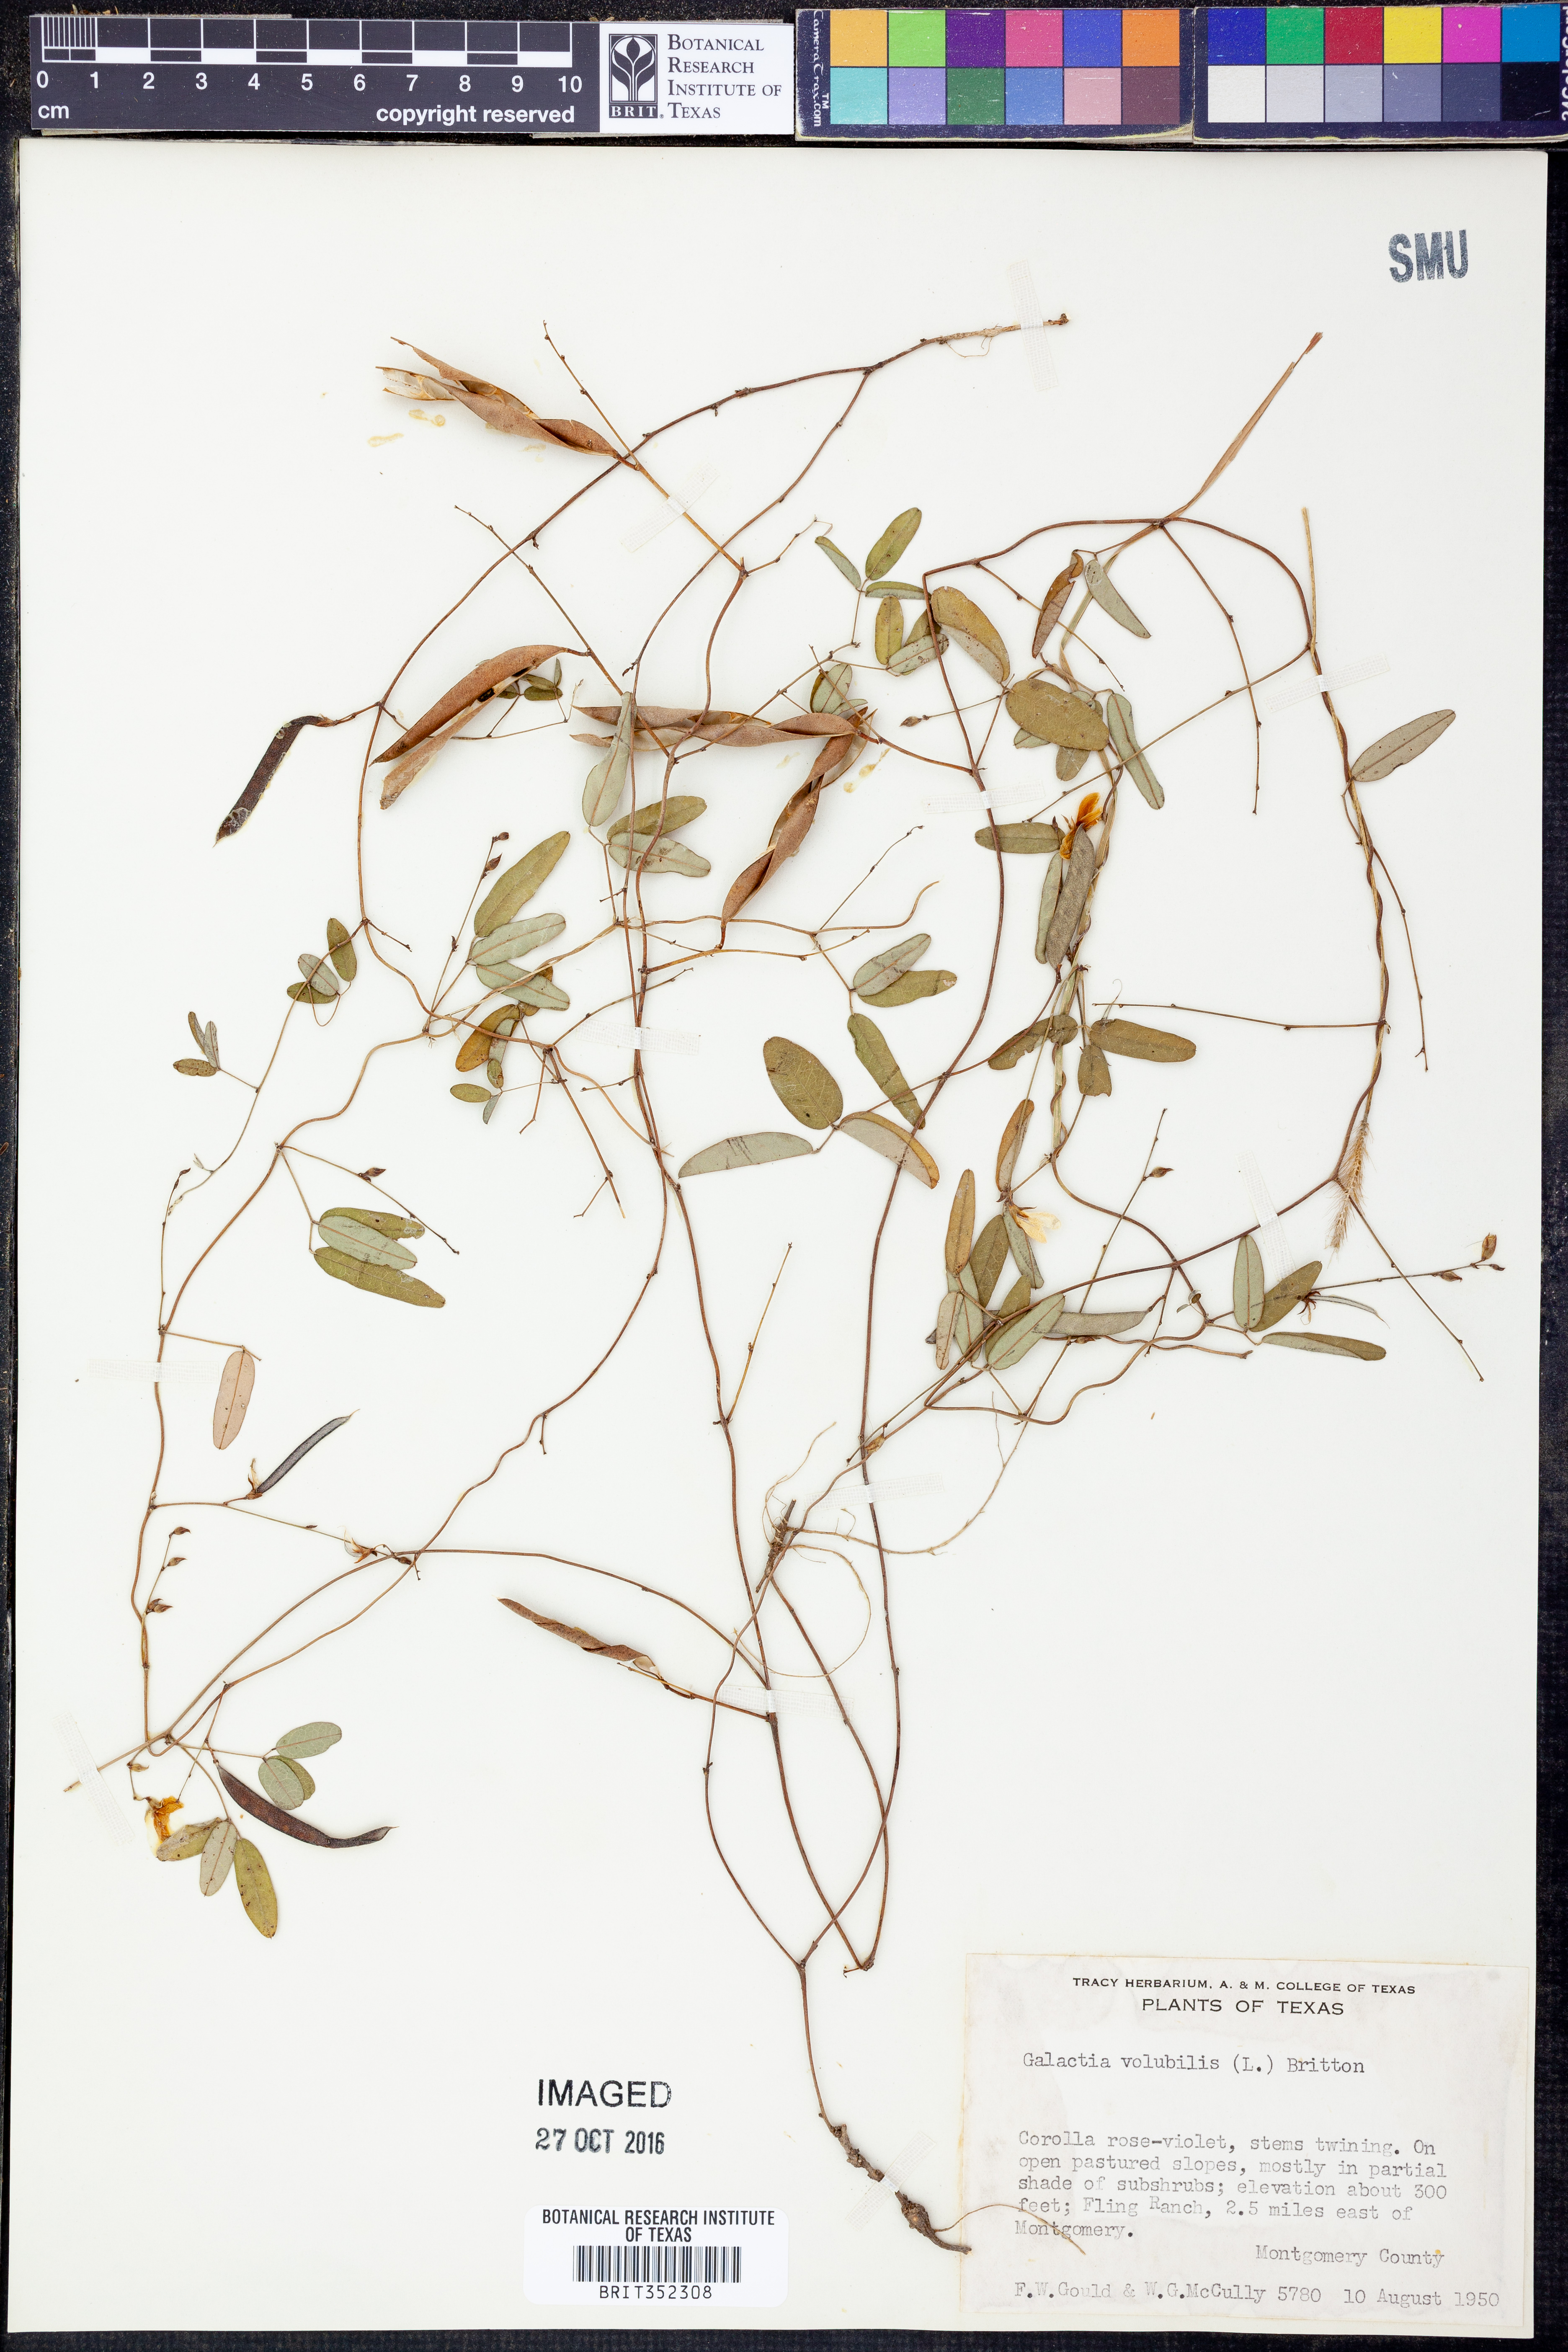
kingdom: Plantae
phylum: Tracheophyta
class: Magnoliopsida
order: Fabales
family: Fabaceae
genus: Galactia
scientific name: Galactia volubilis
